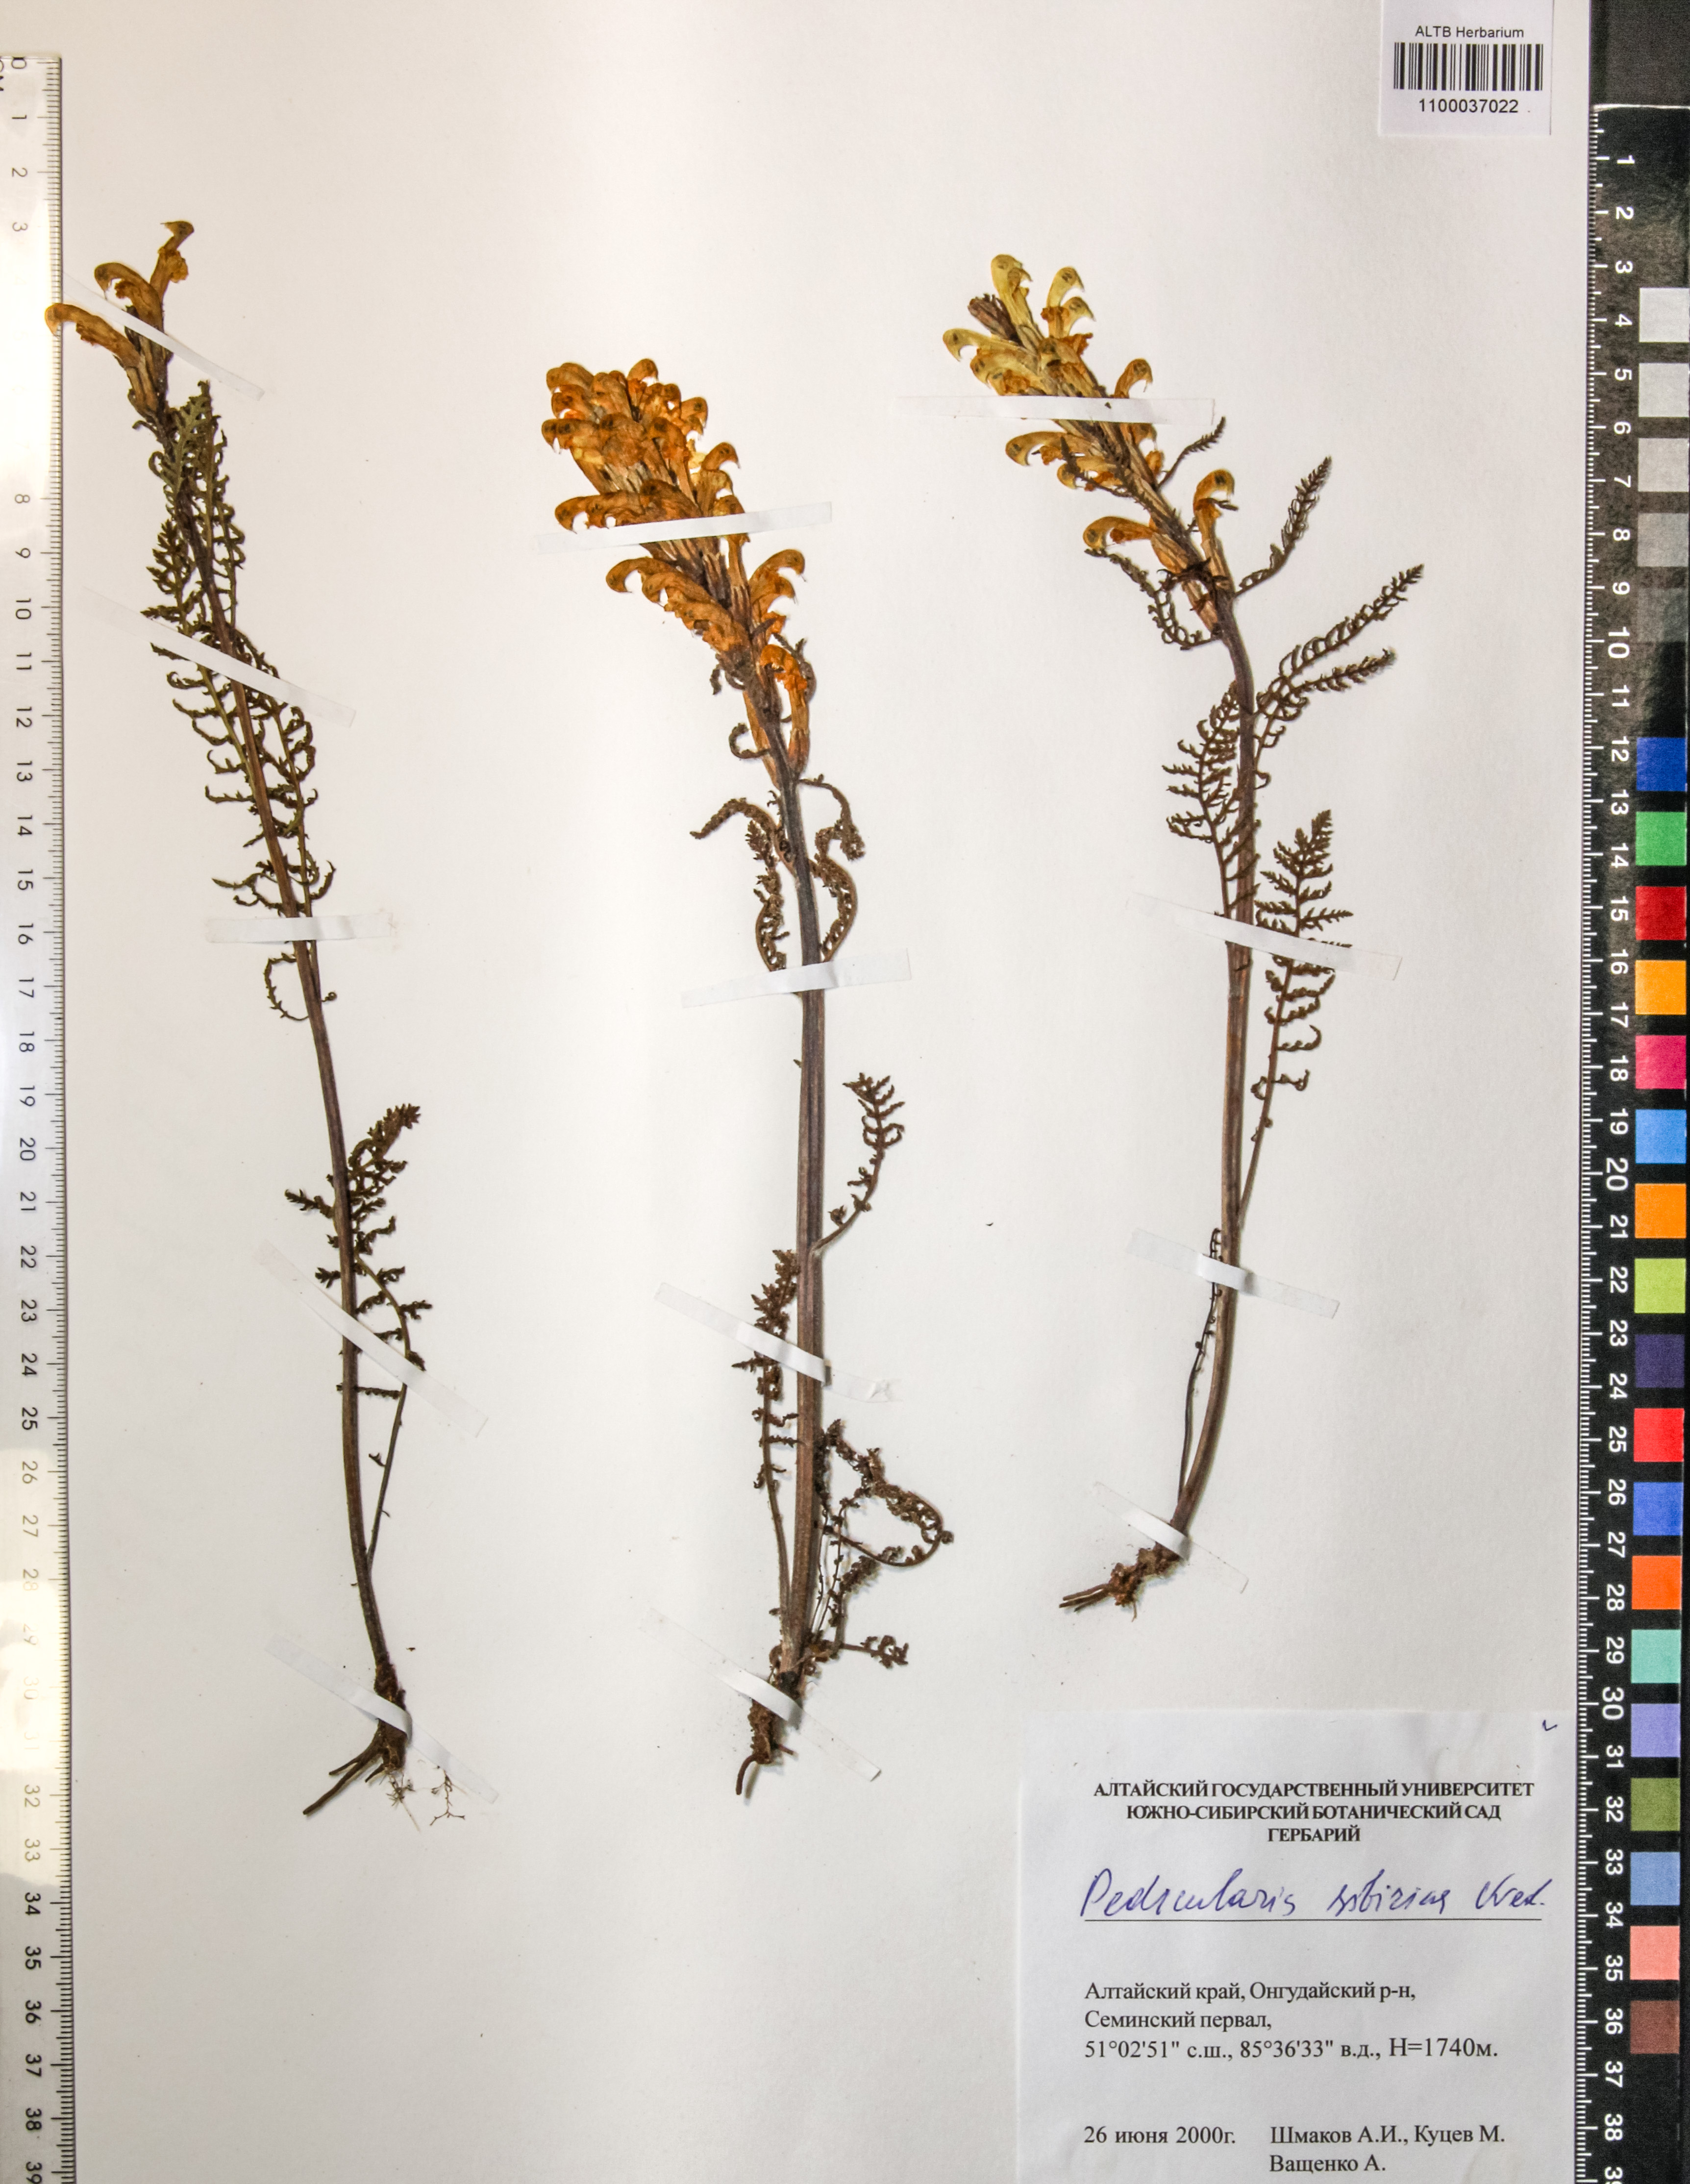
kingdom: Plantae
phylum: Tracheophyta
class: Magnoliopsida
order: Lamiales
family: Orobanchaceae
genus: Pedicularis
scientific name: Pedicularis sibirica
